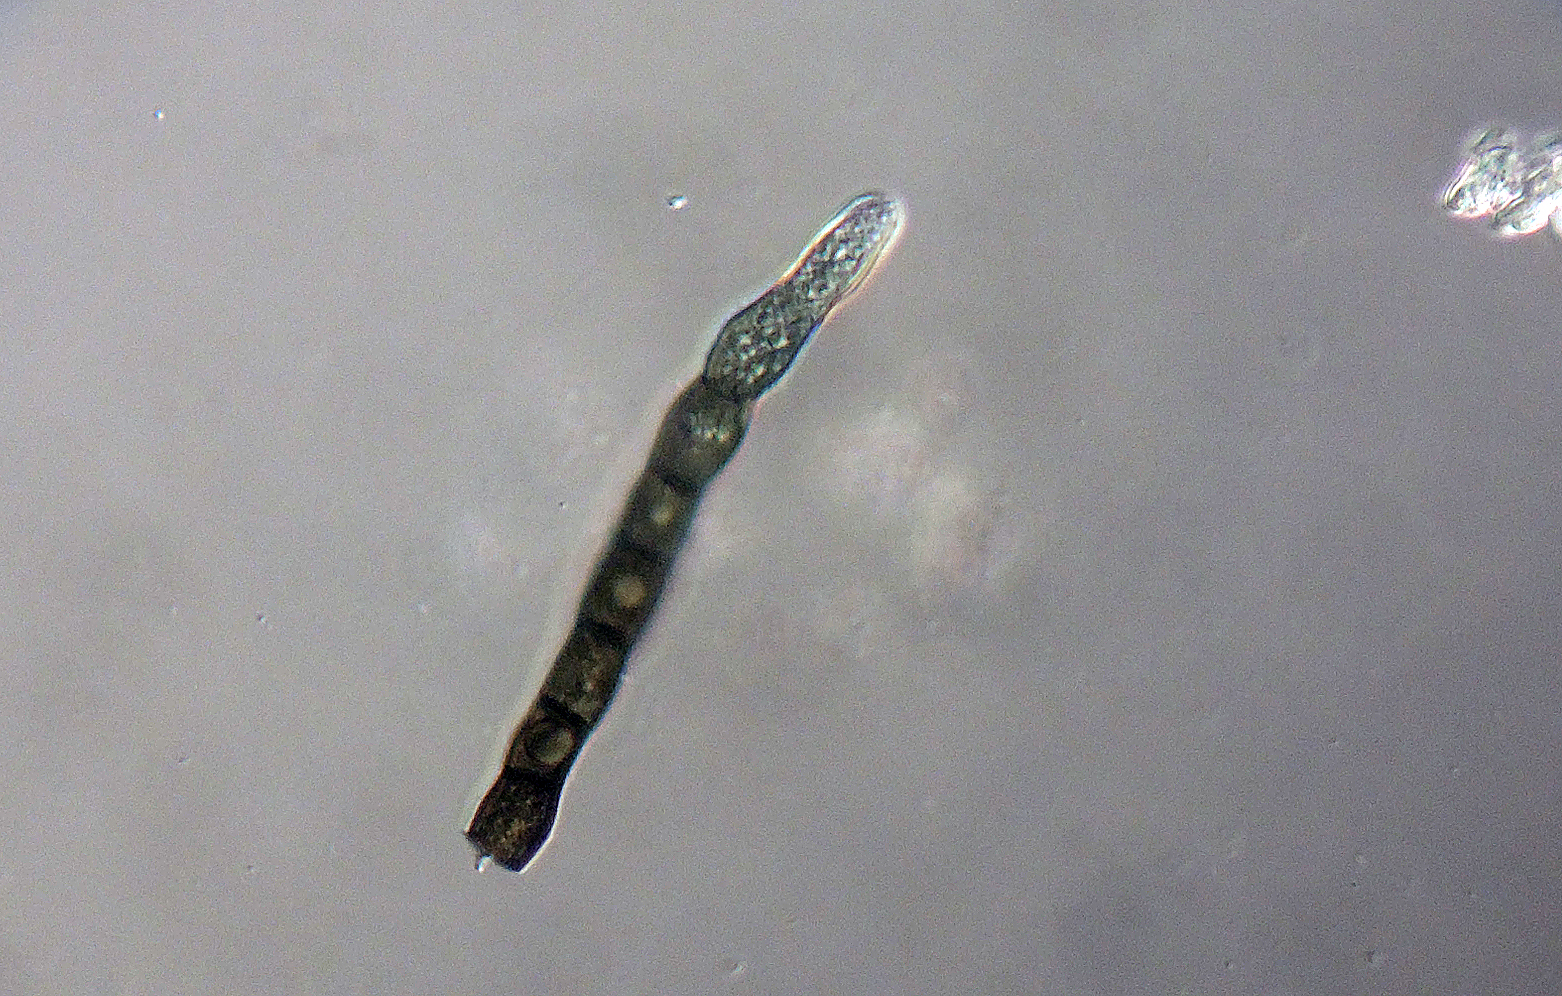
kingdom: Fungi
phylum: Ascomycota
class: Dothideomycetes
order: Mytilinidiales
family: Mytilinidiaceae
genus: Taeniolella
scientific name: Taeniolella phaeophysciae
